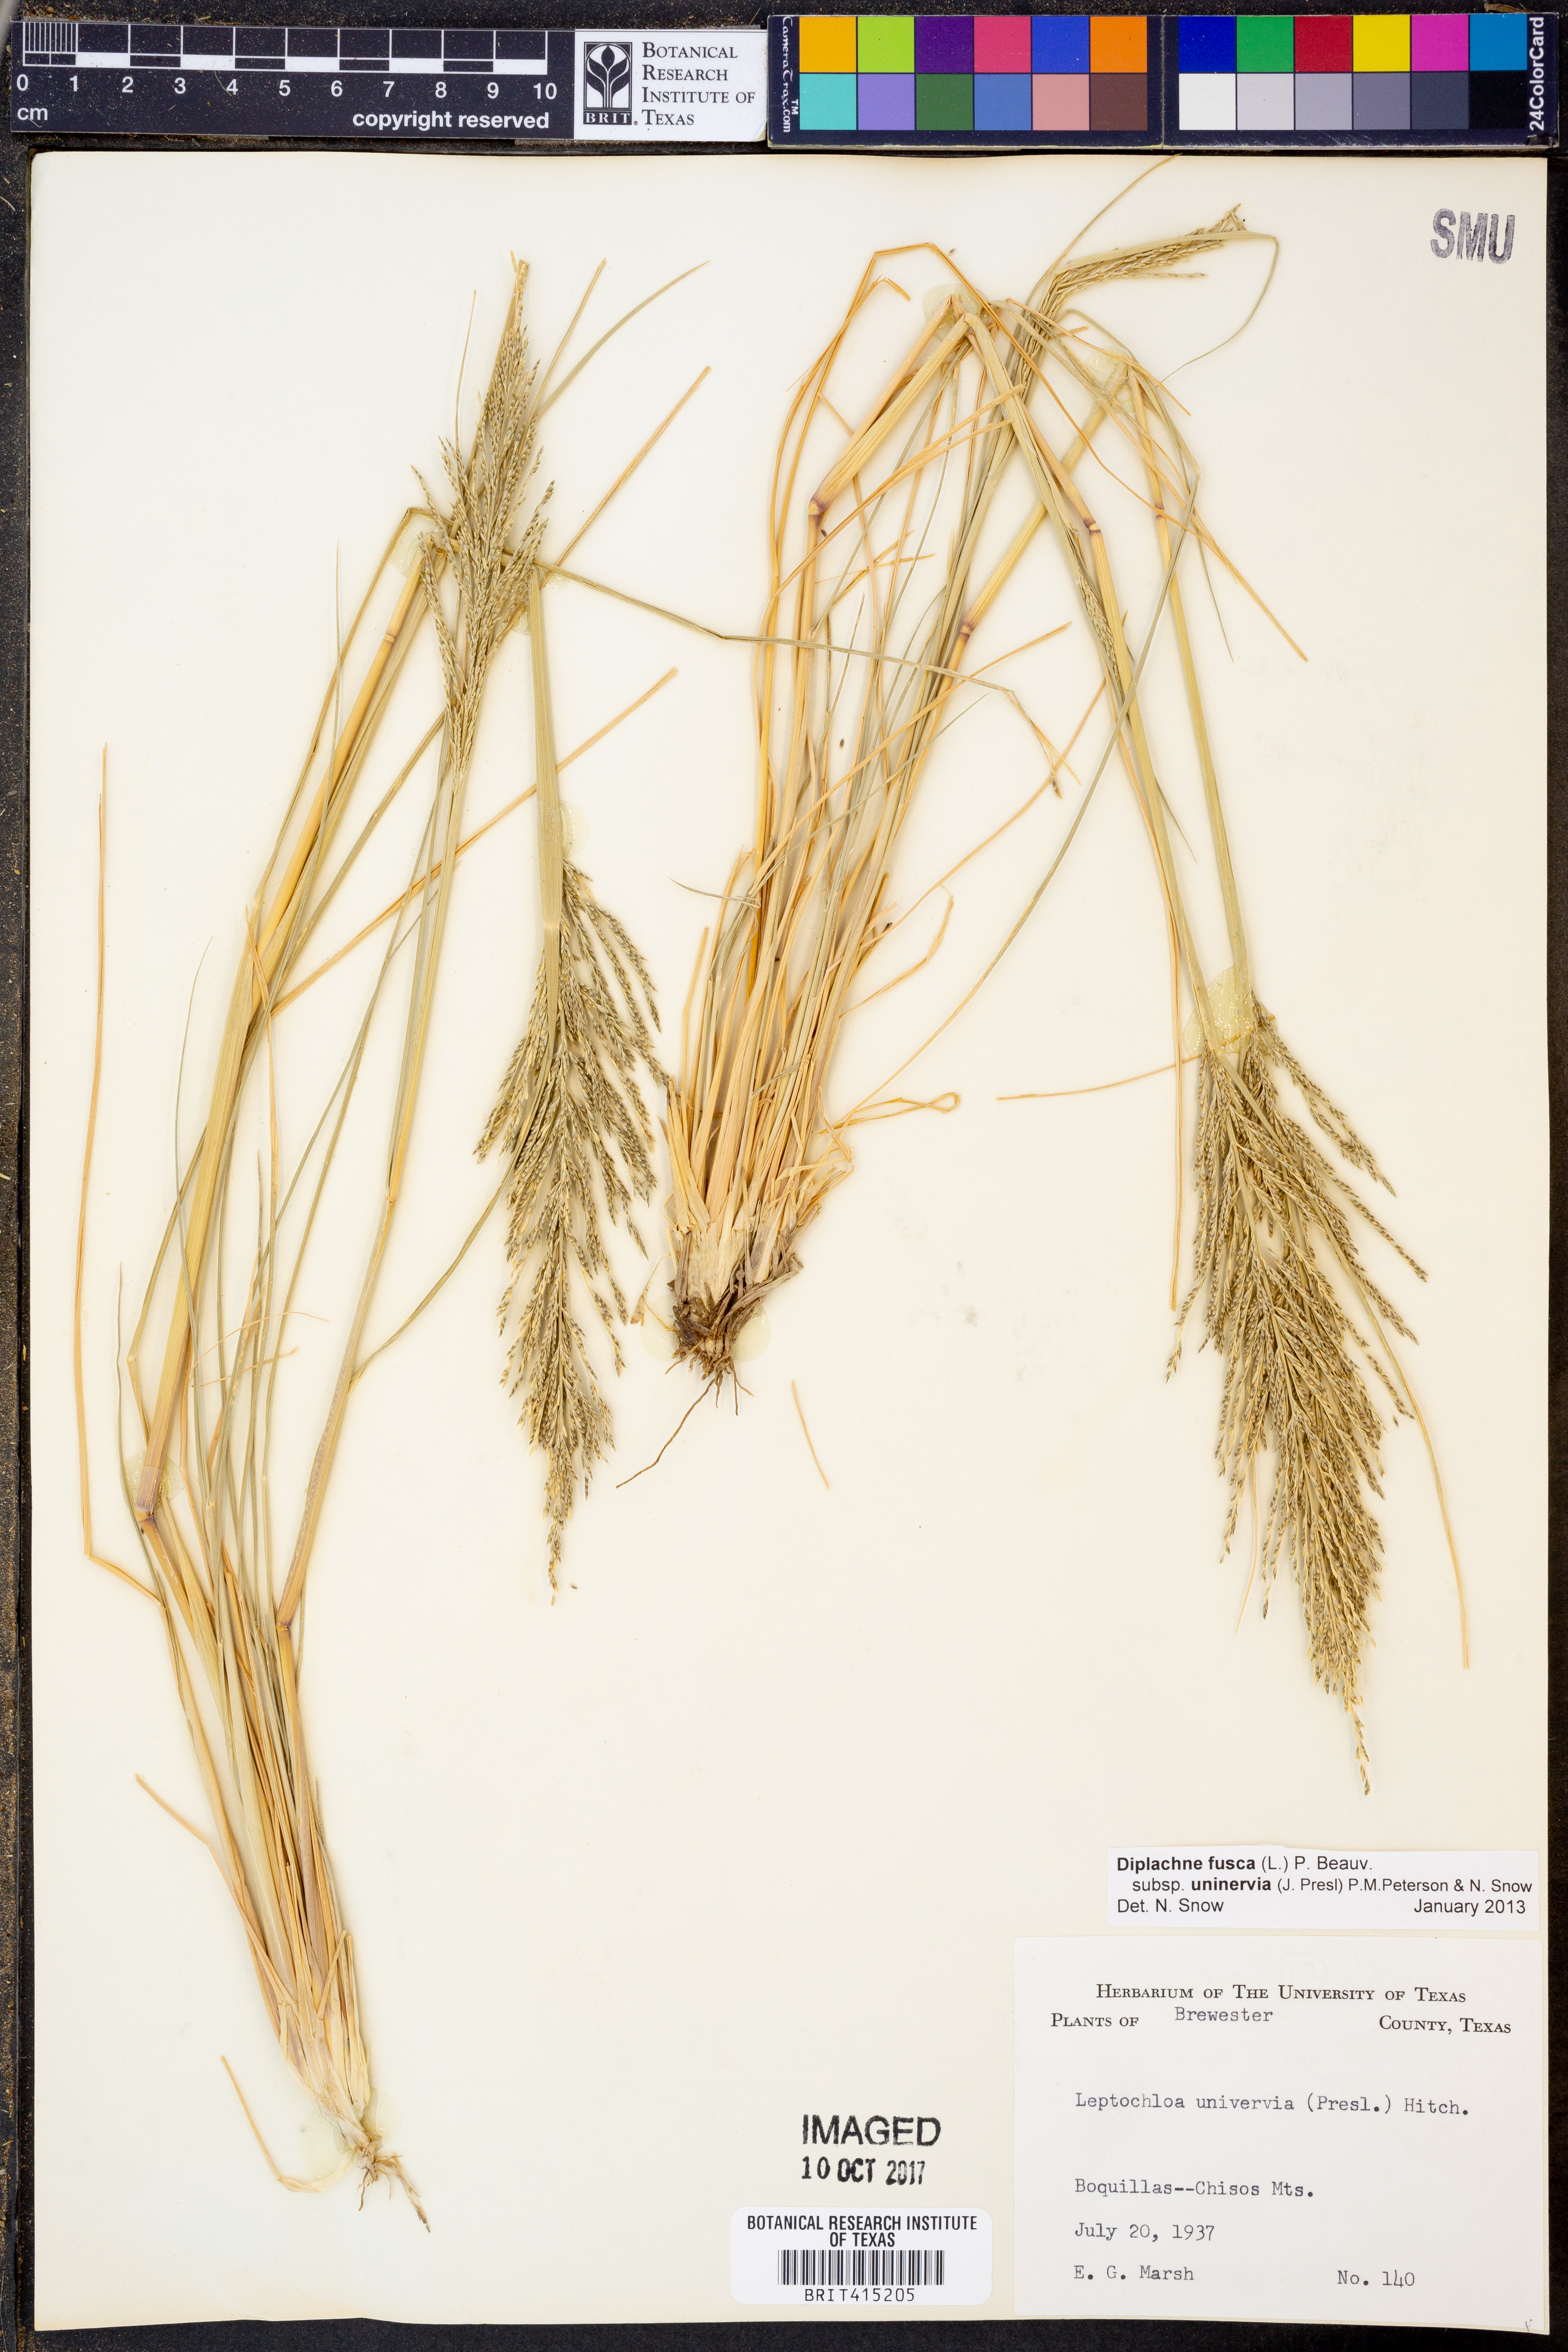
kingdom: Plantae
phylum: Tracheophyta
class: Liliopsida
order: Poales
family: Poaceae
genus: Diplachne
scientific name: Diplachne fusca
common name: Brown beetle grass
